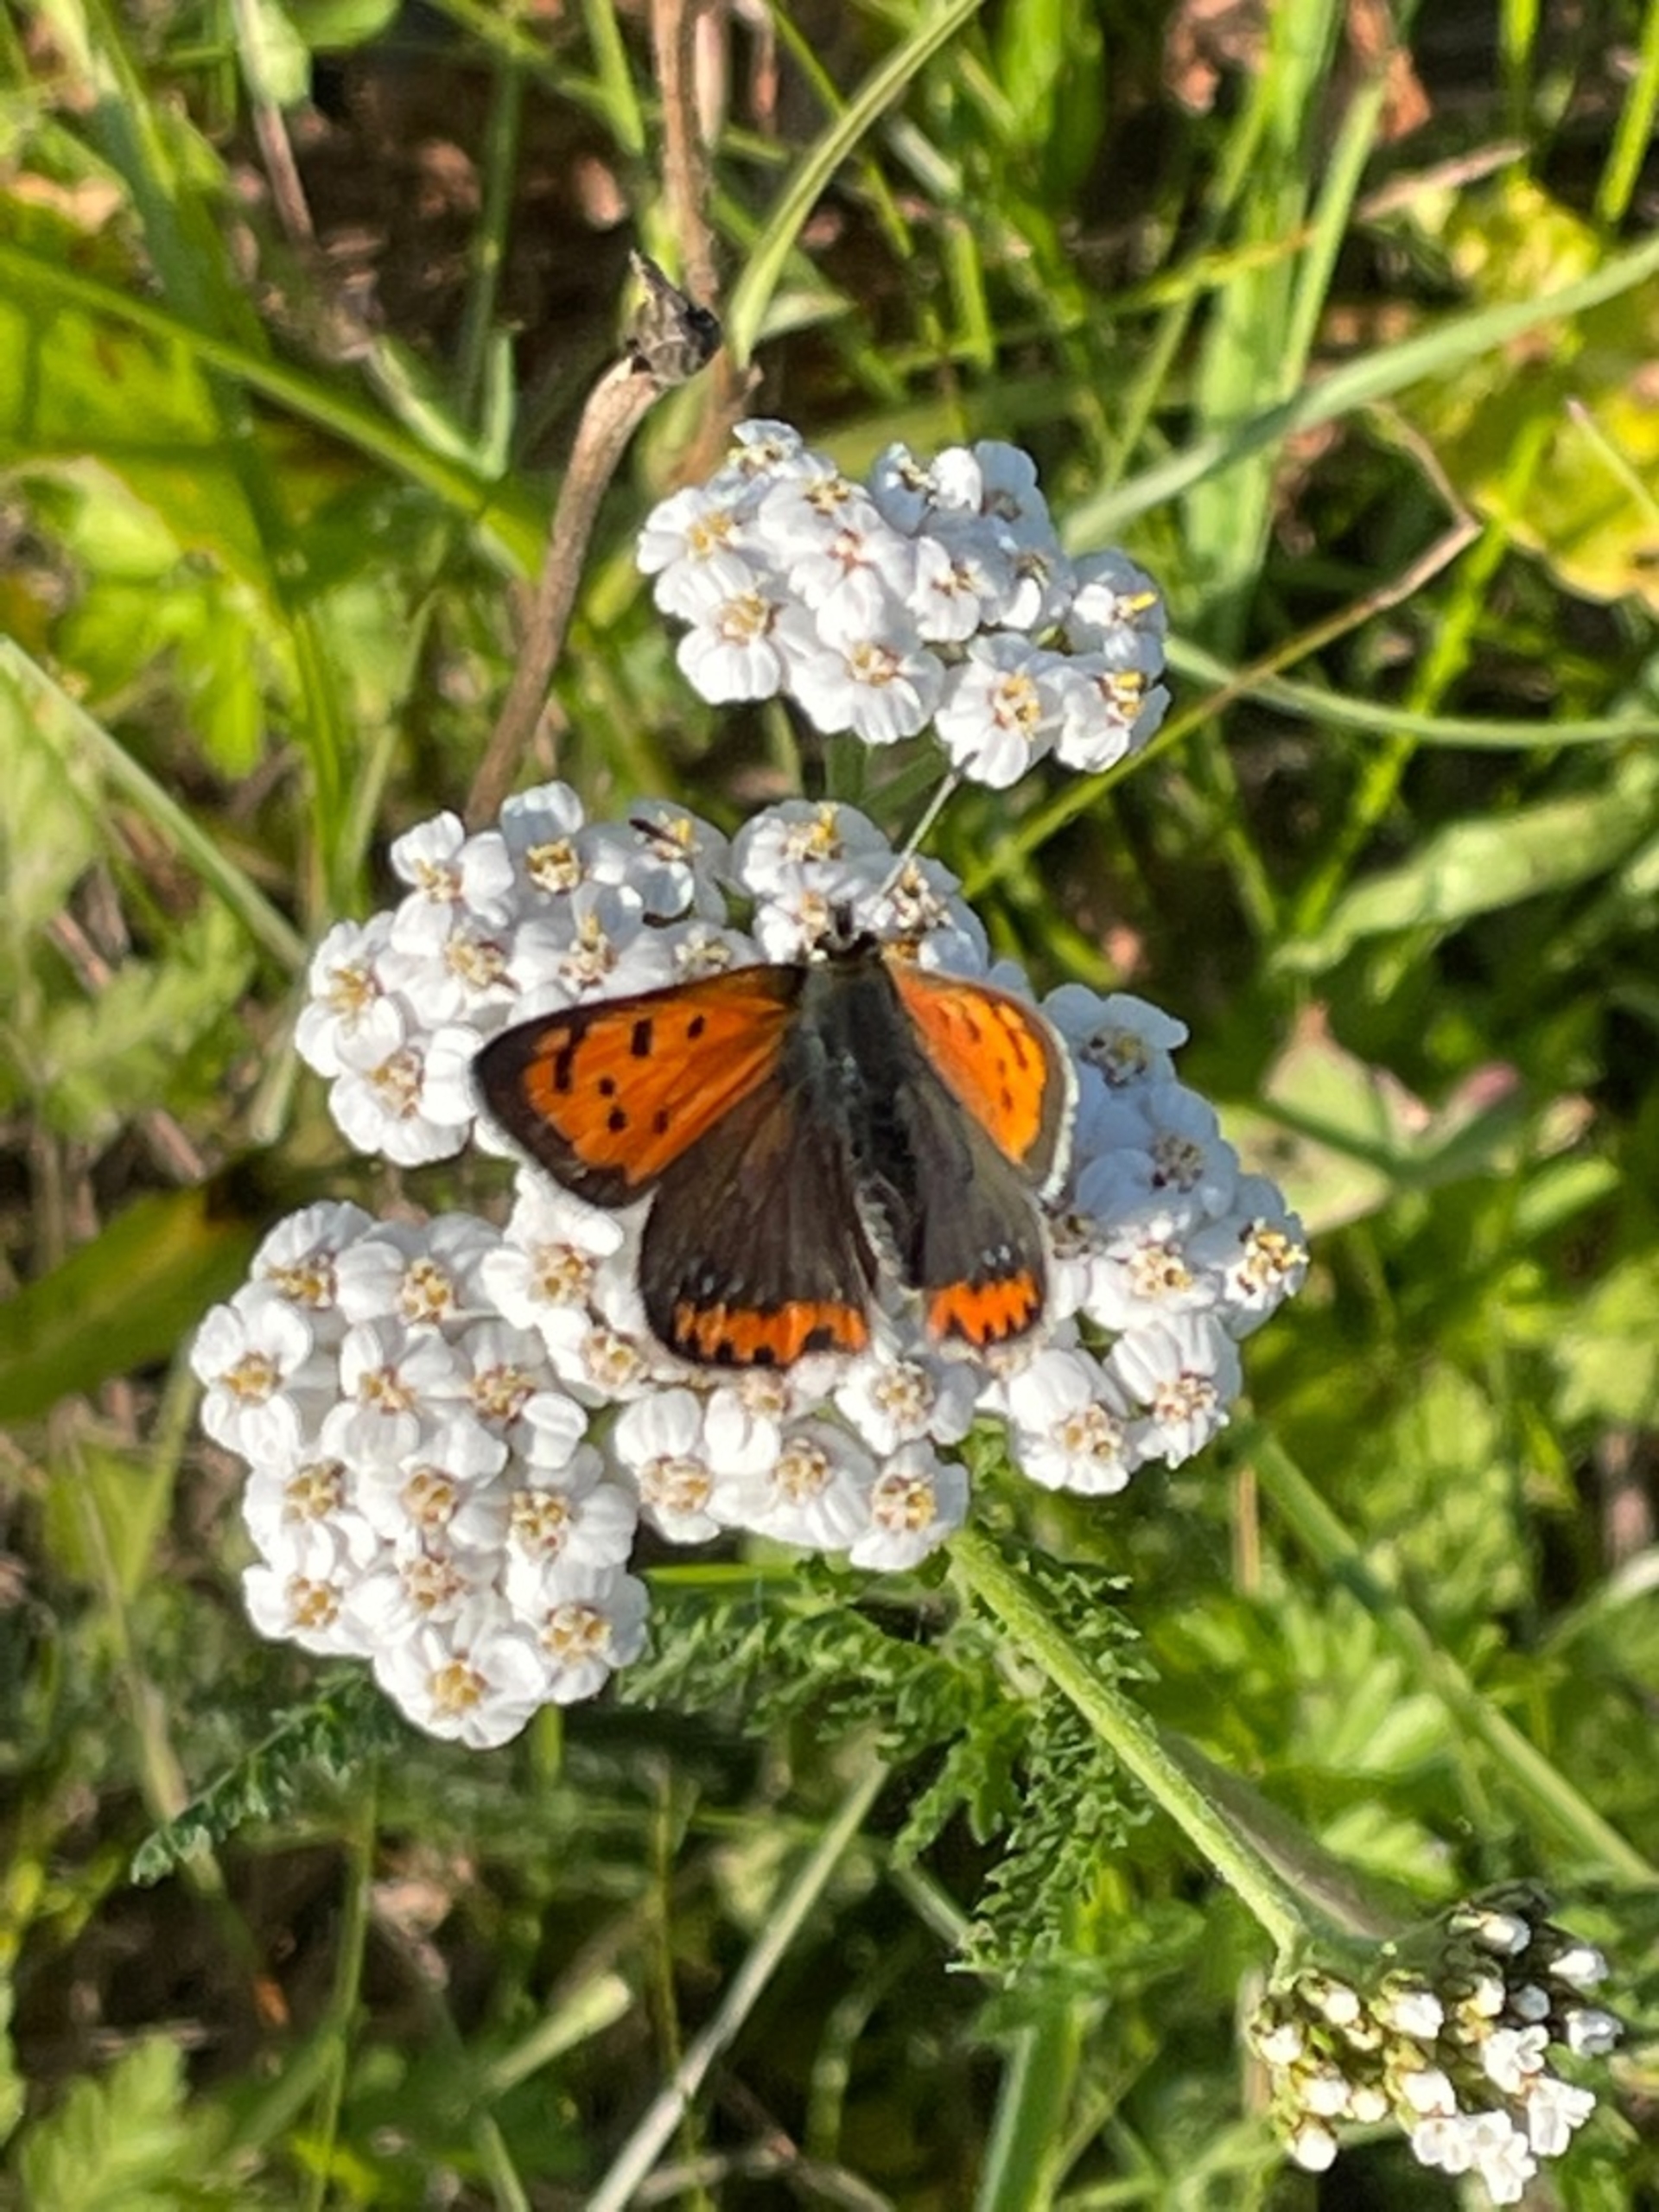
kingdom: Animalia
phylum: Arthropoda
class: Insecta
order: Lepidoptera
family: Lycaenidae
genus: Lycaena
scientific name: Lycaena phlaeas
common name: Lille ildfugl
